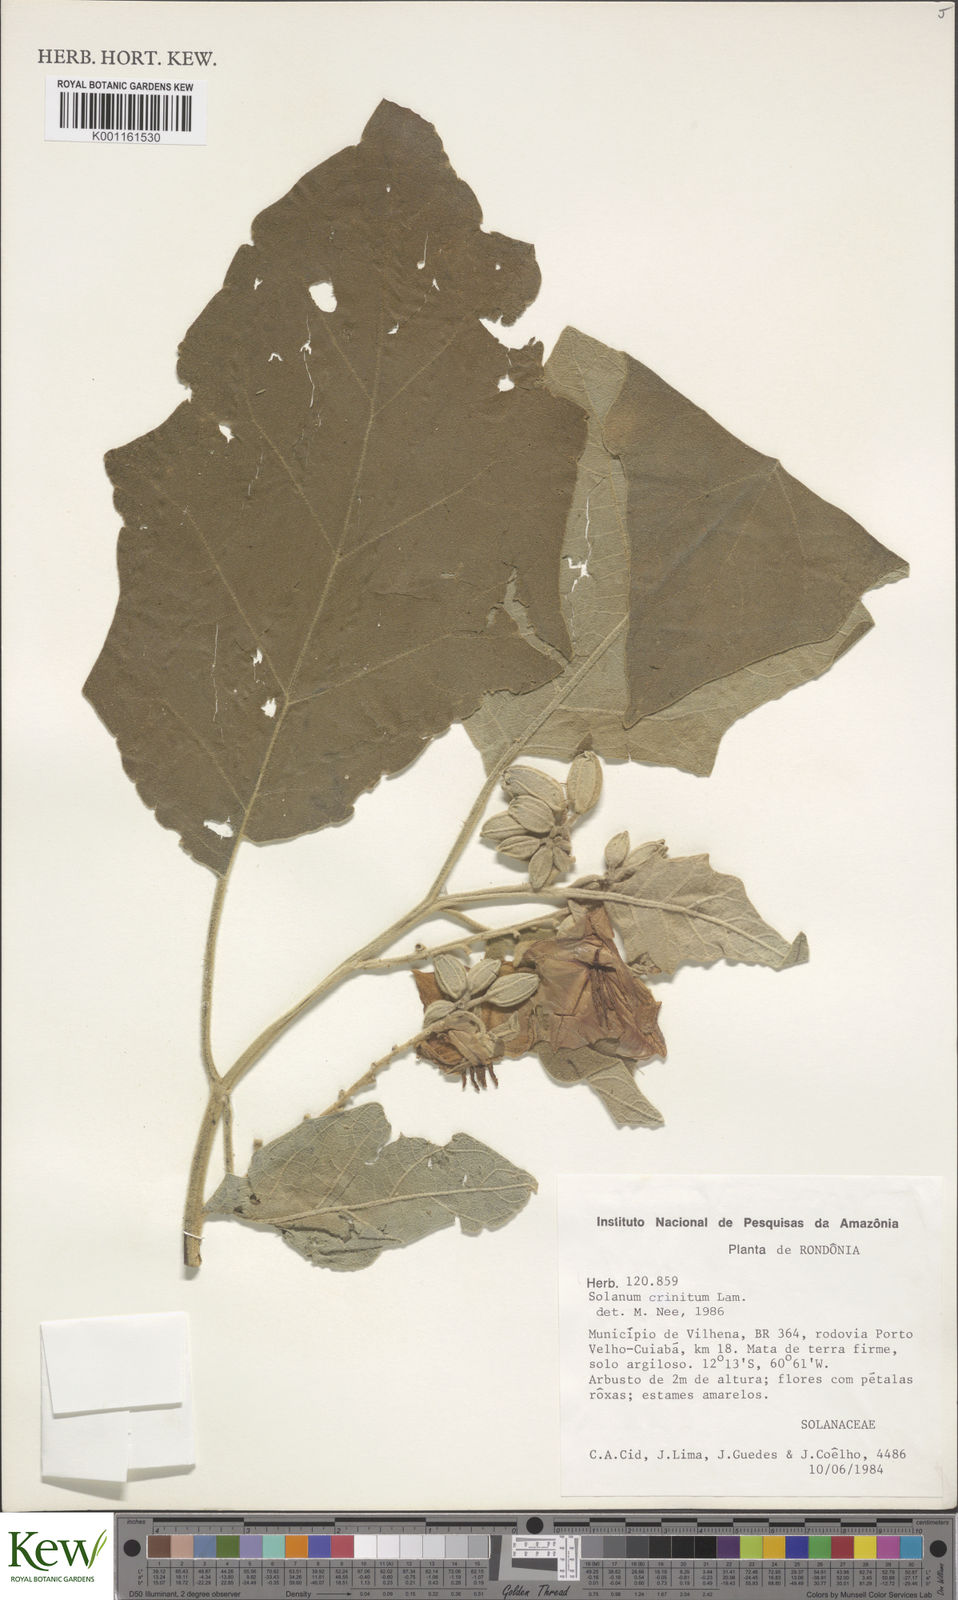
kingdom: Plantae
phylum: Tracheophyta
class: Magnoliopsida
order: Solanales
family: Solanaceae
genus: Solanum
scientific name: Solanum crinitum
